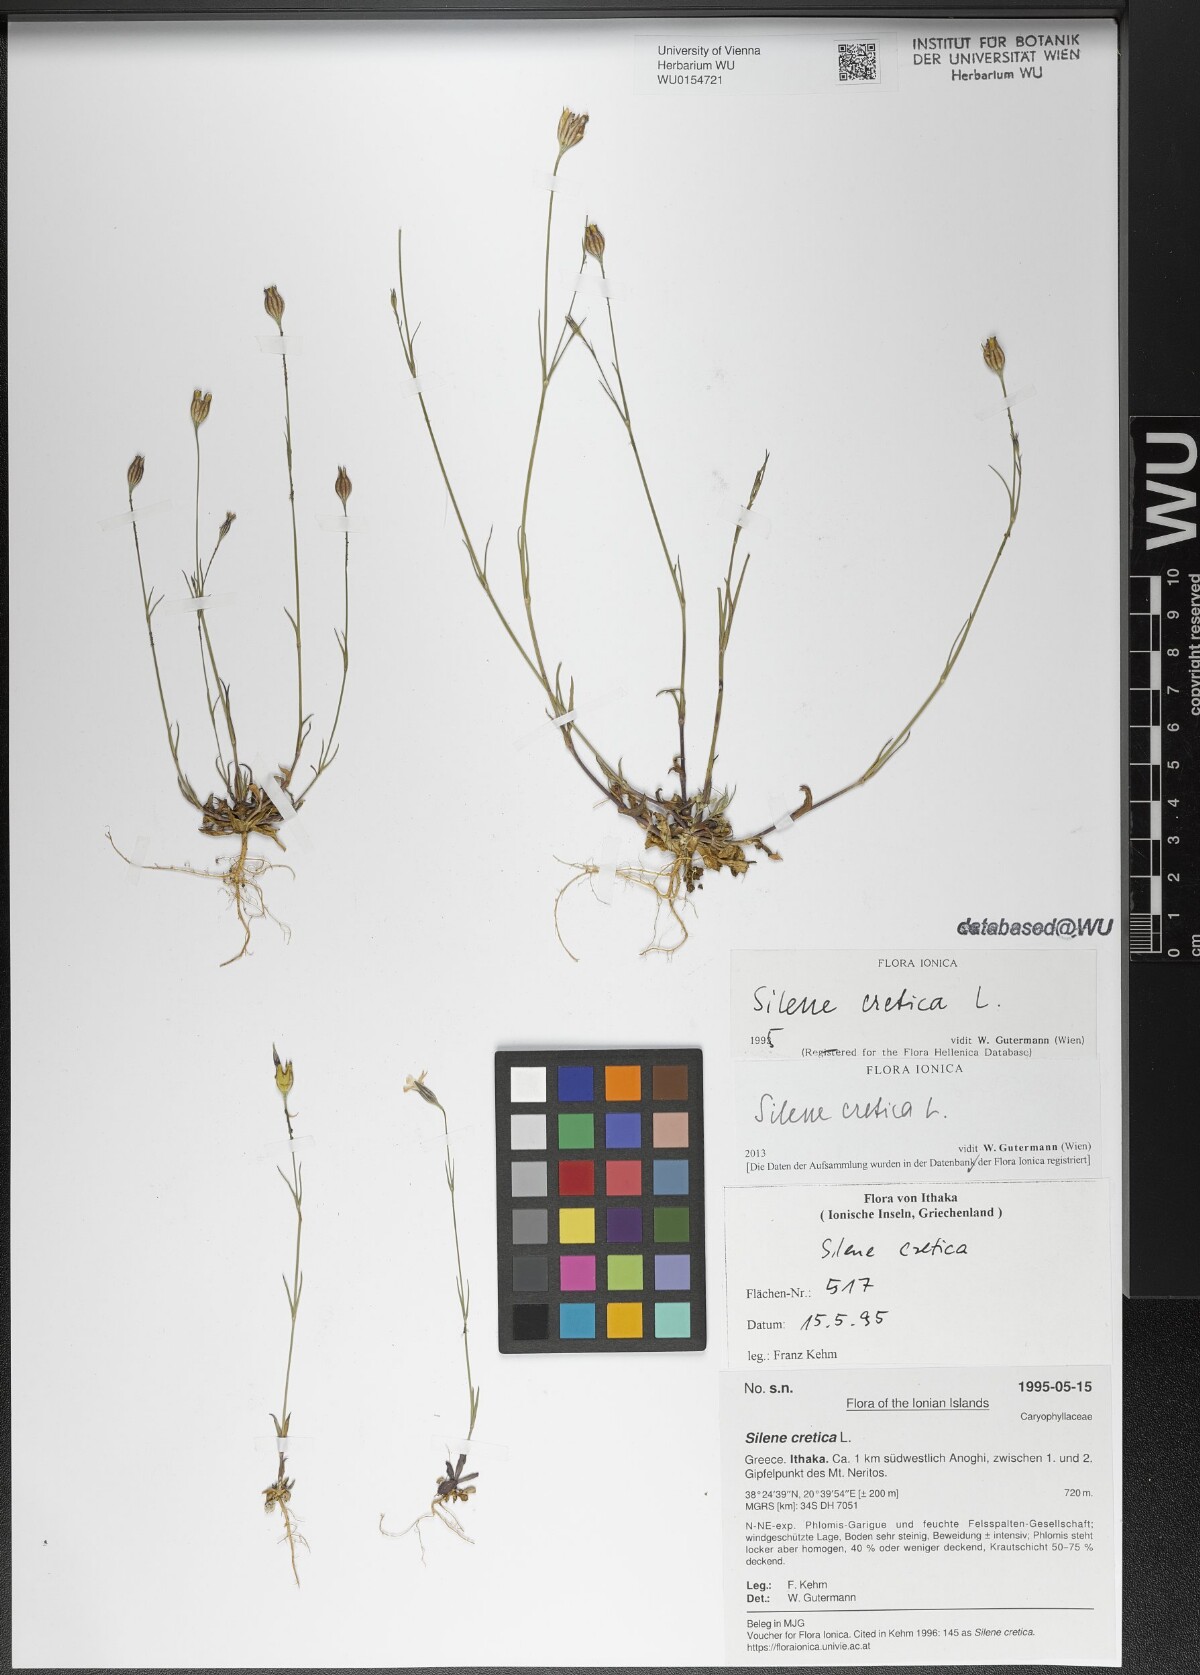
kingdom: Plantae
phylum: Tracheophyta
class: Magnoliopsida
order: Caryophyllales
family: Caryophyllaceae
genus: Silene
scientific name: Silene cretica
